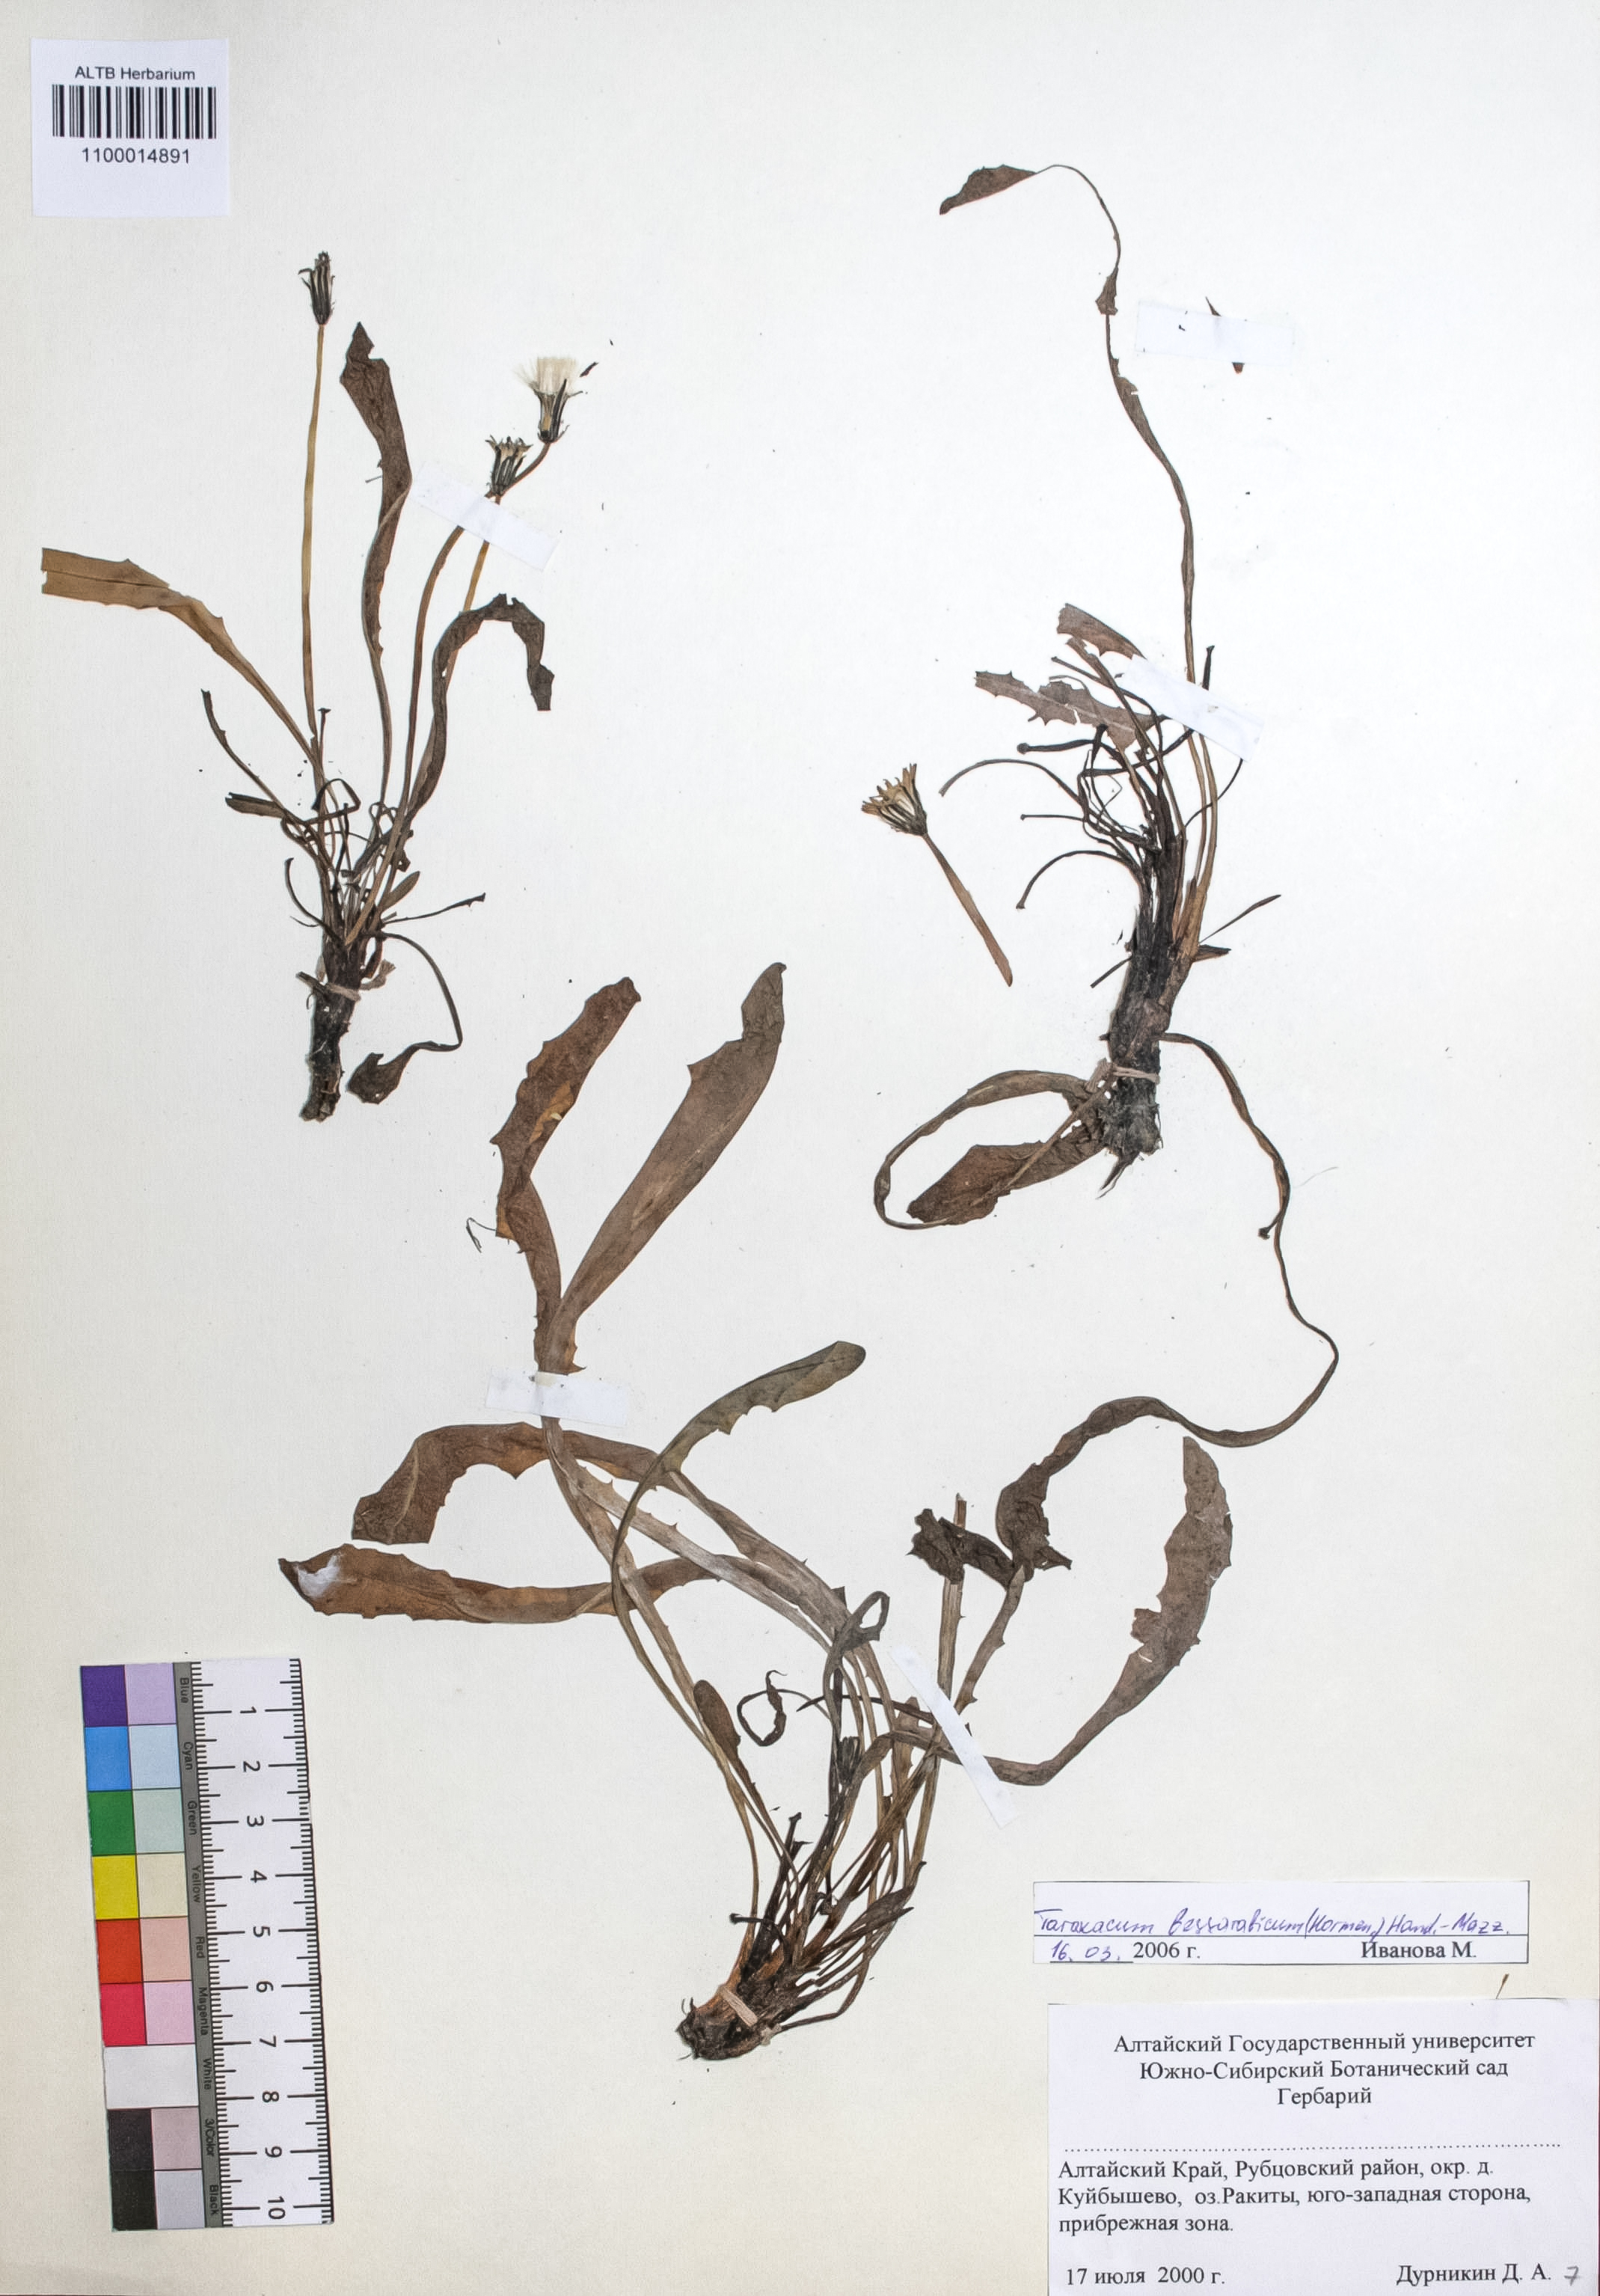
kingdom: Plantae
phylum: Tracheophyta
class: Magnoliopsida
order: Asterales
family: Asteraceae
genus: Taraxacum
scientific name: Taraxacum bessarabicum
